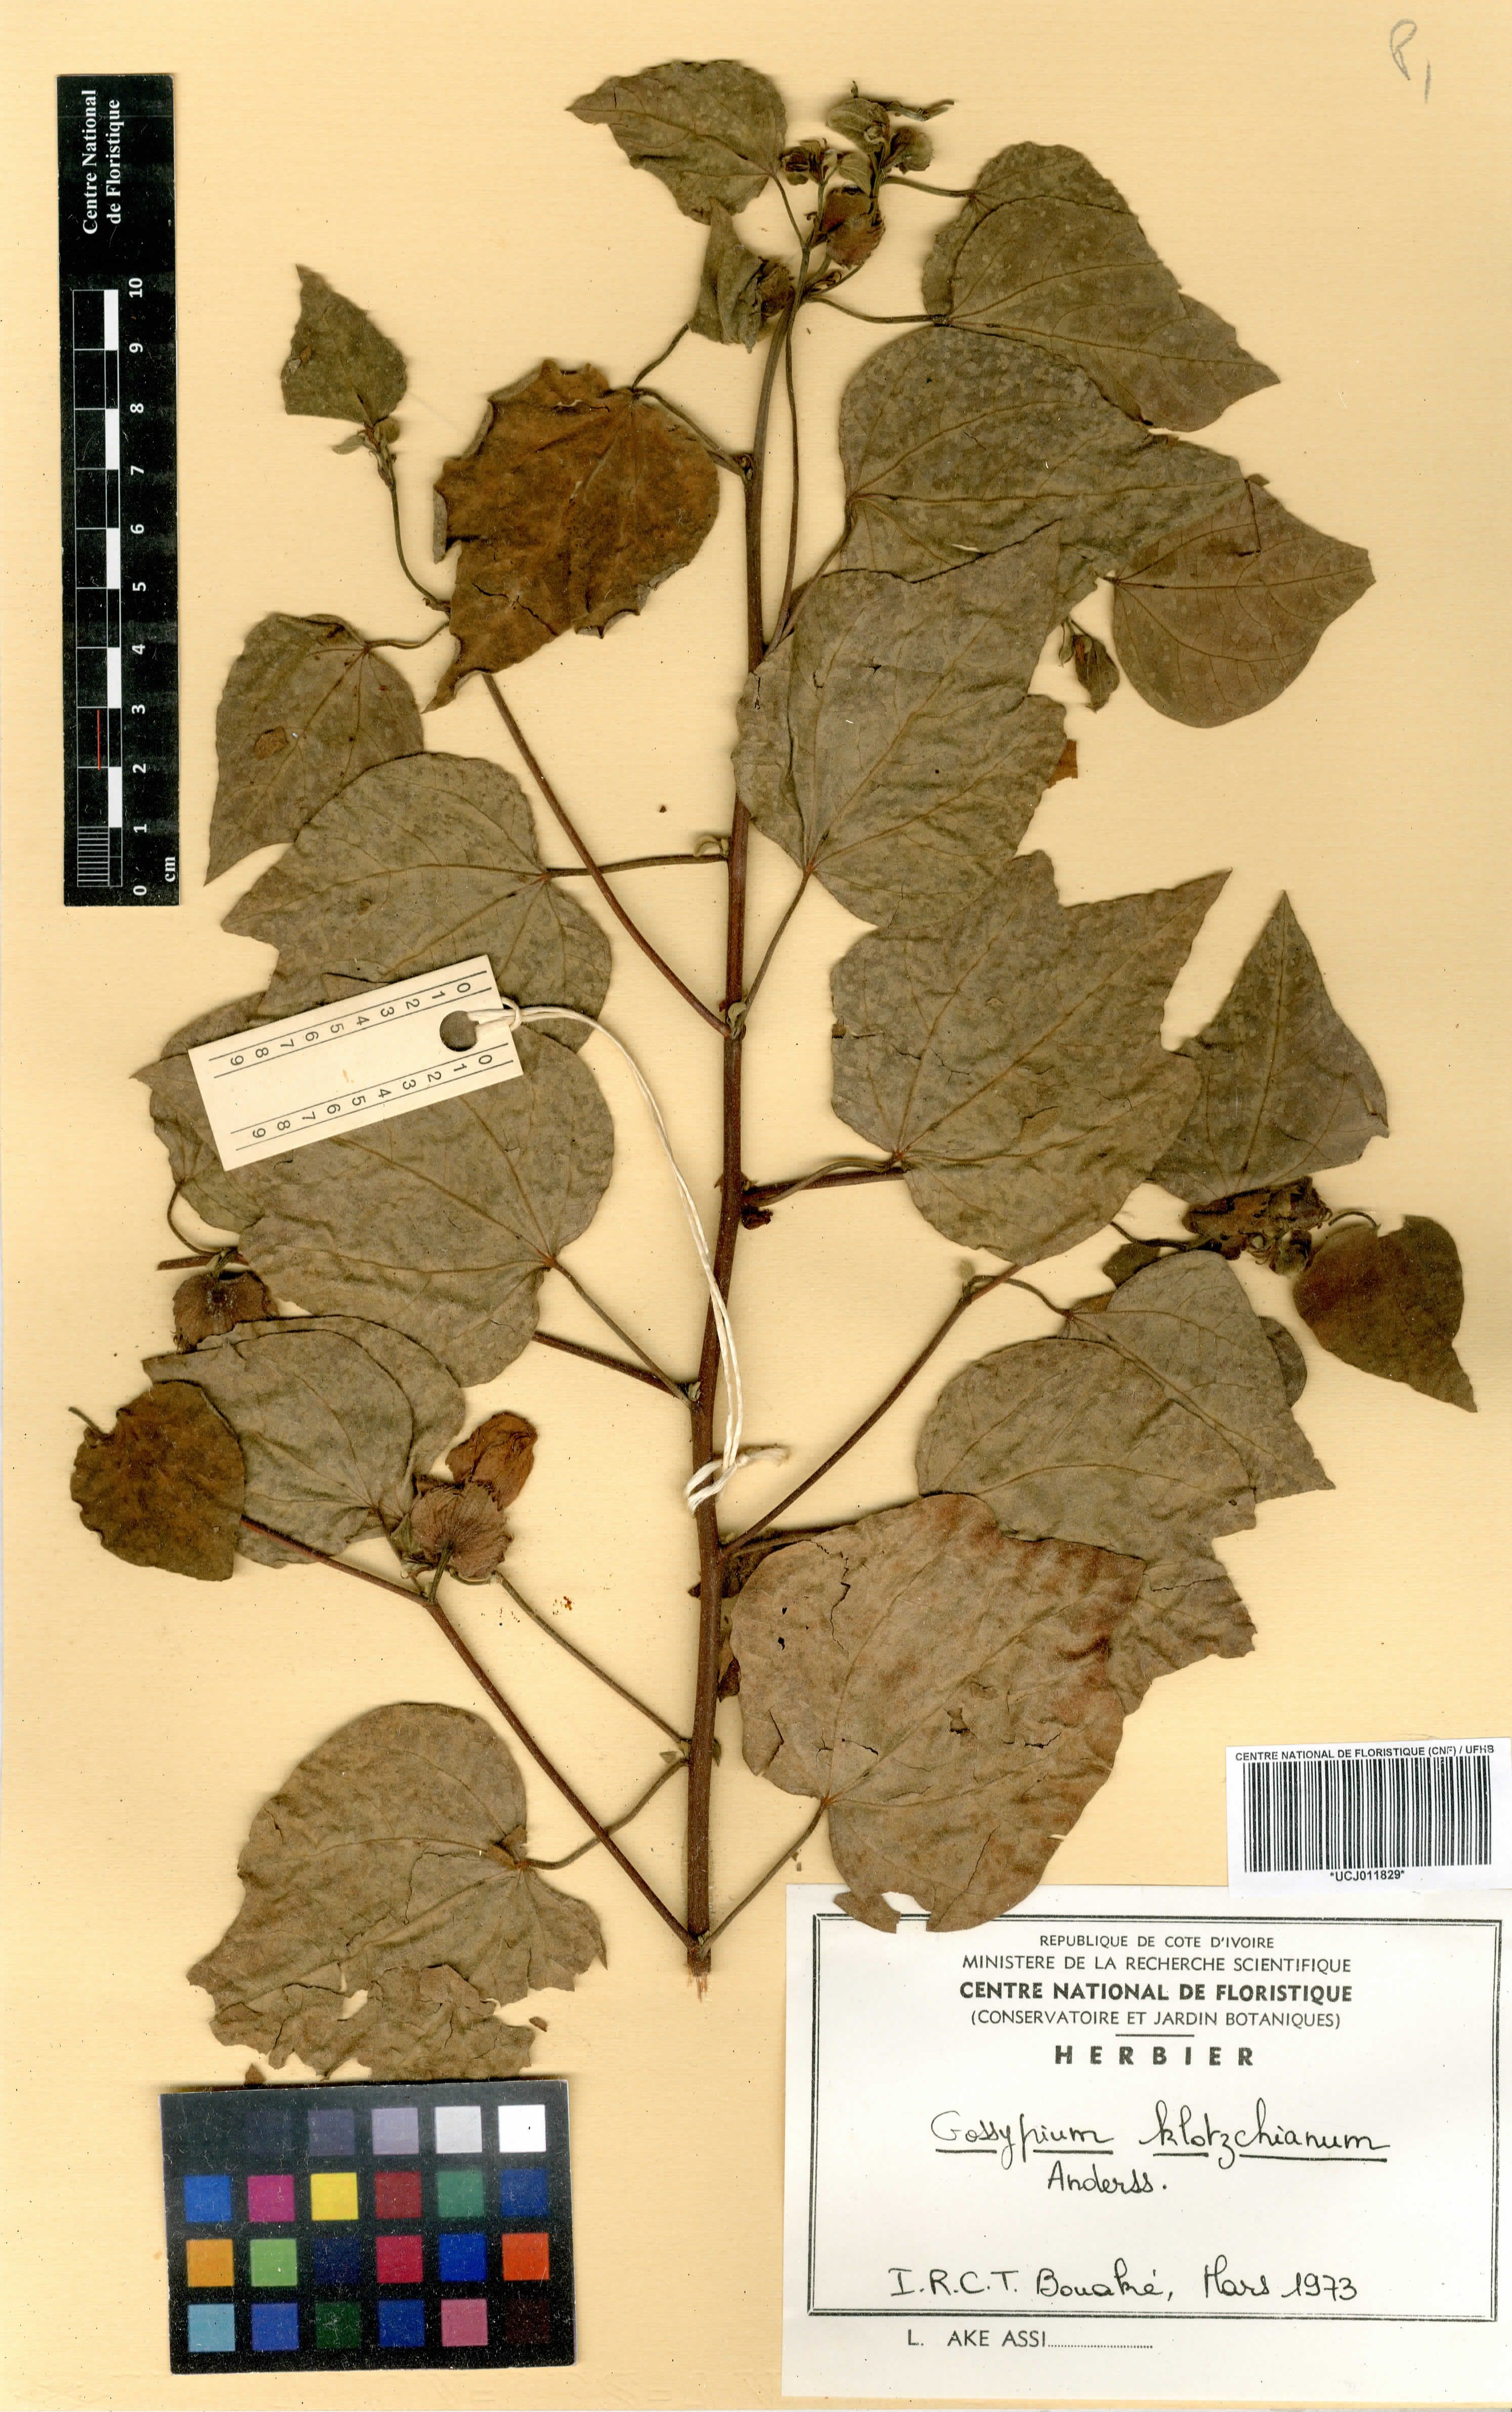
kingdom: Plantae
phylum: Tracheophyta
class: Magnoliopsida
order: Malvales
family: Malvaceae
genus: Gossypium
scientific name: Gossypium klotzschianum
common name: Galapagos cotton
